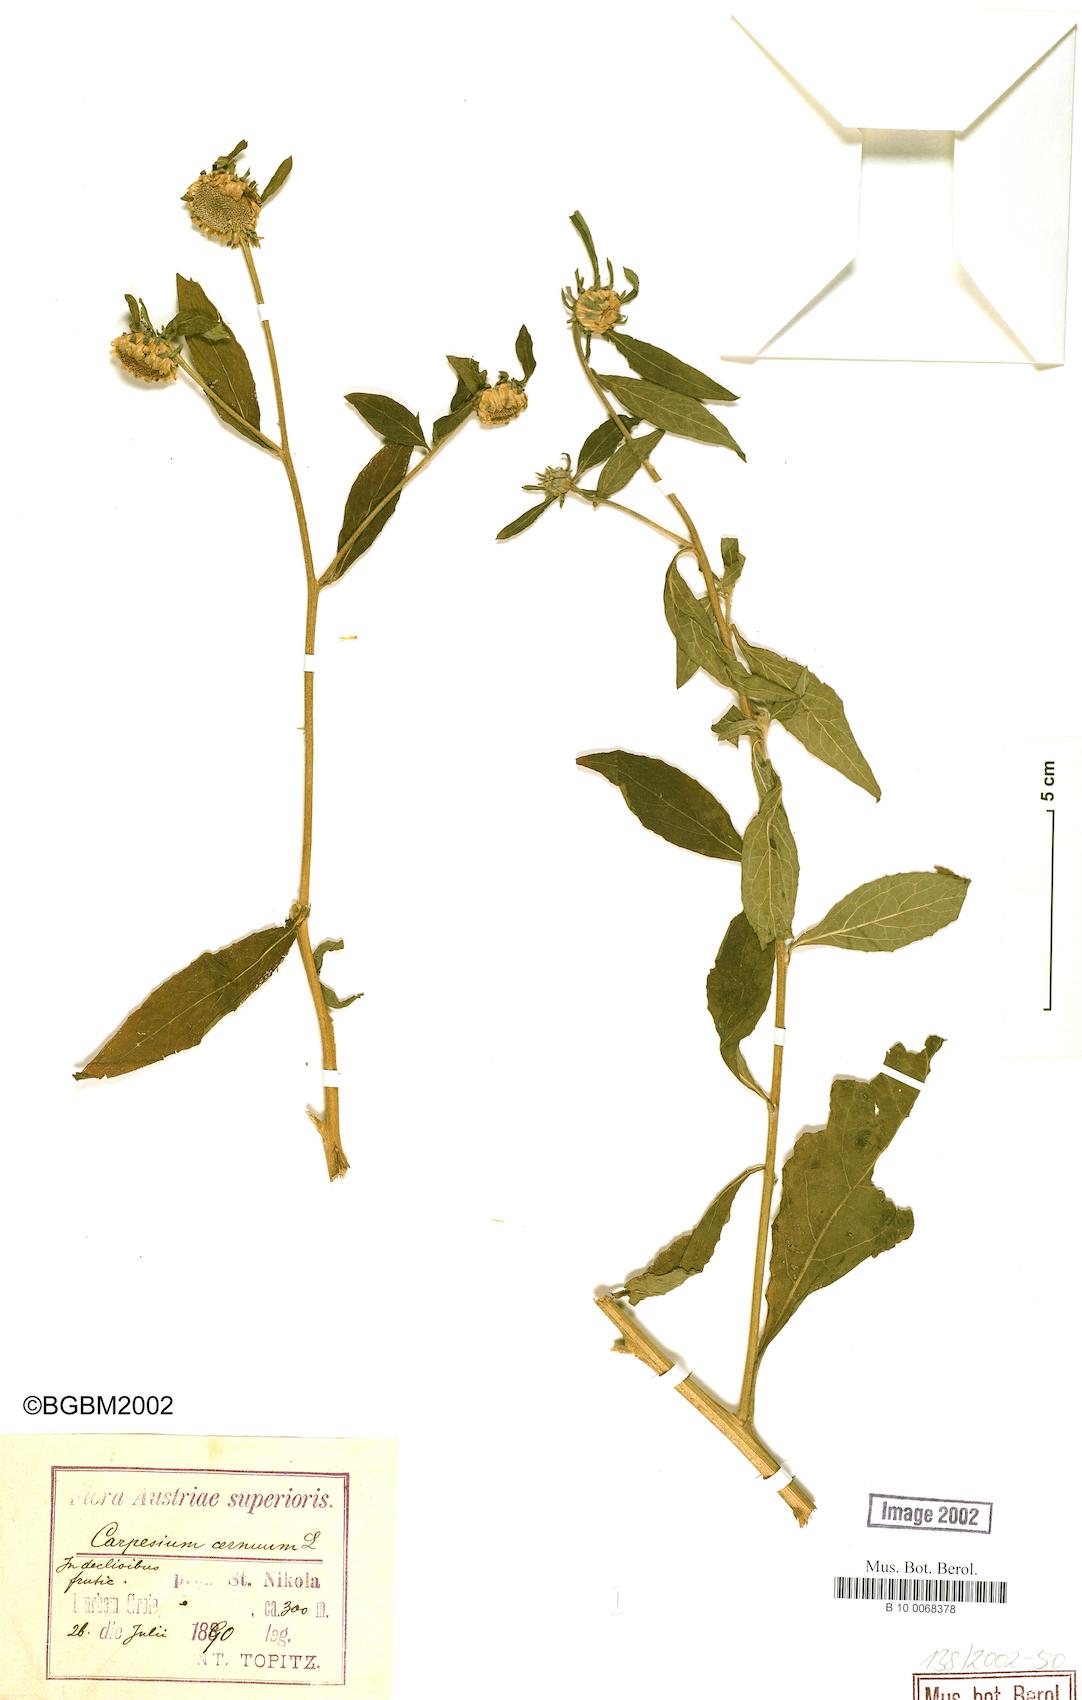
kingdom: Plantae
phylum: Tracheophyta
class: Magnoliopsida
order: Asterales
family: Asteraceae
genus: Carpesium
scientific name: Carpesium cernuum
